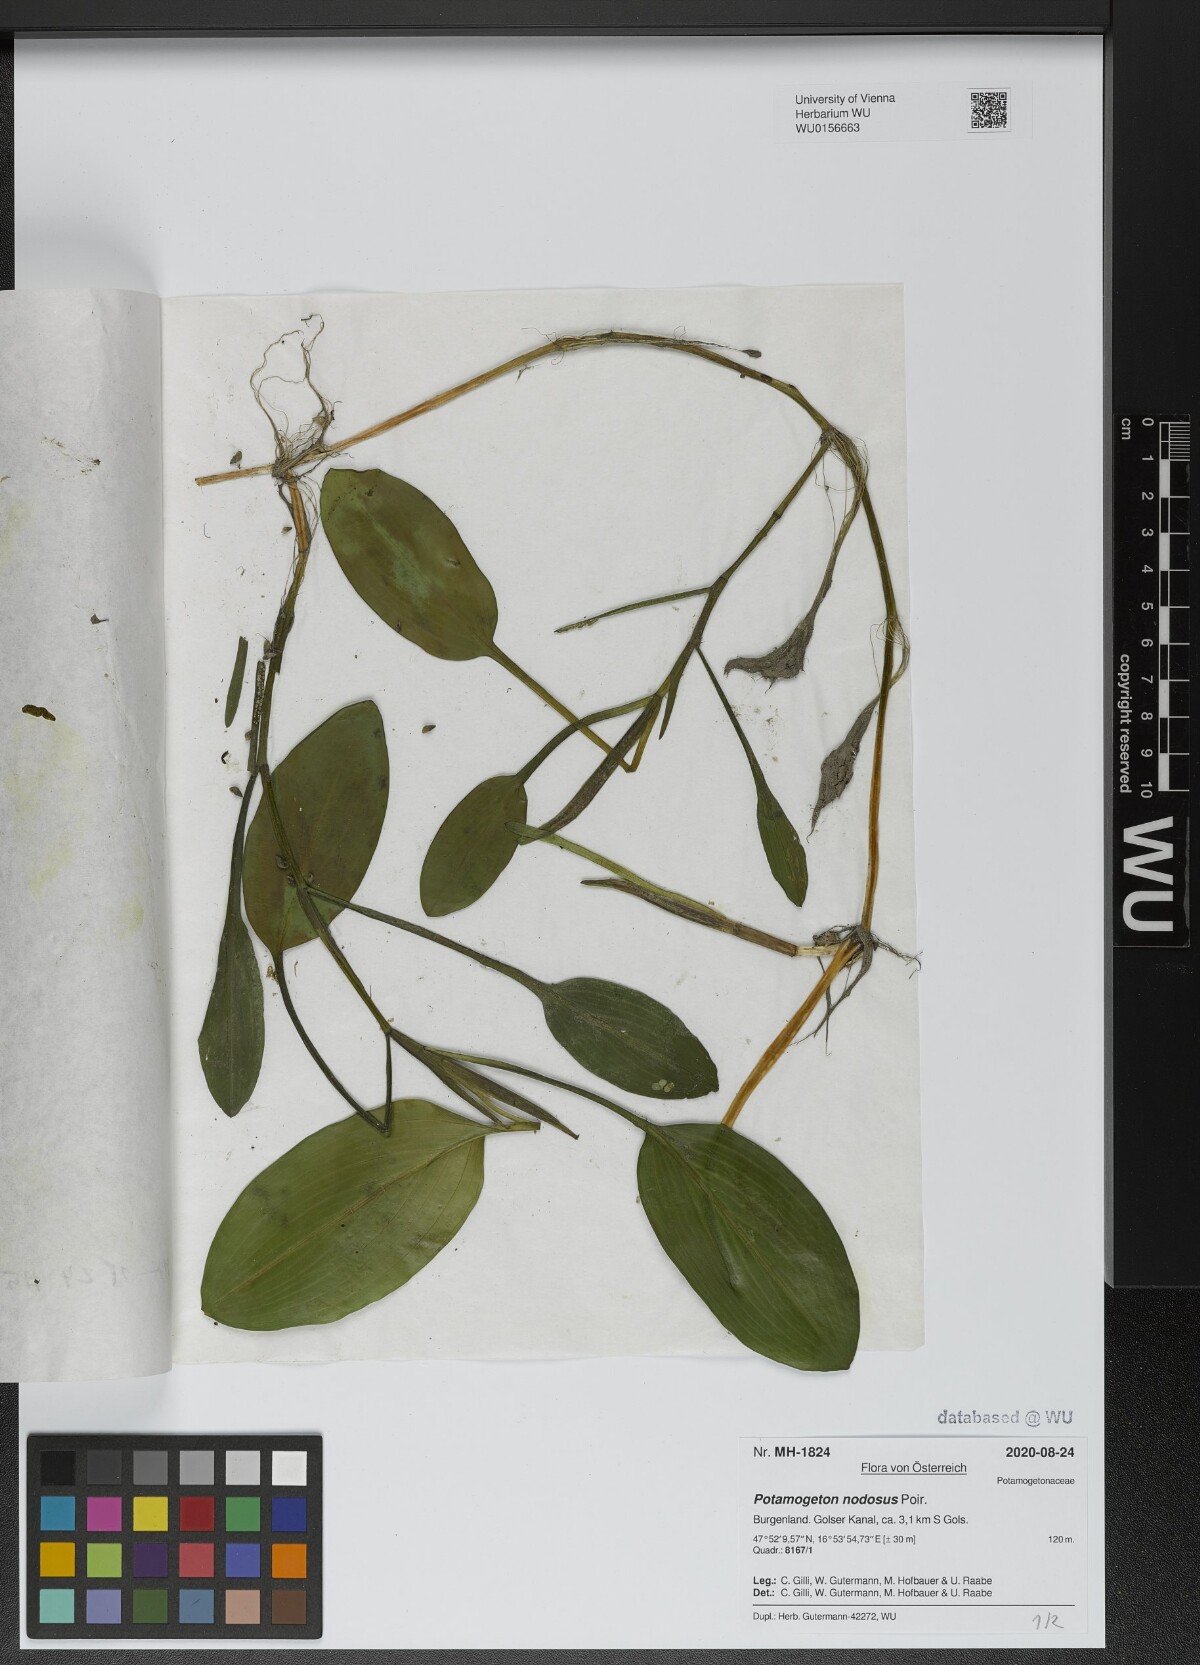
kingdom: Plantae
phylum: Tracheophyta
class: Liliopsida
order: Alismatales
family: Potamogetonaceae
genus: Potamogeton
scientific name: Potamogeton nodosus
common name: Loddon pondweed
